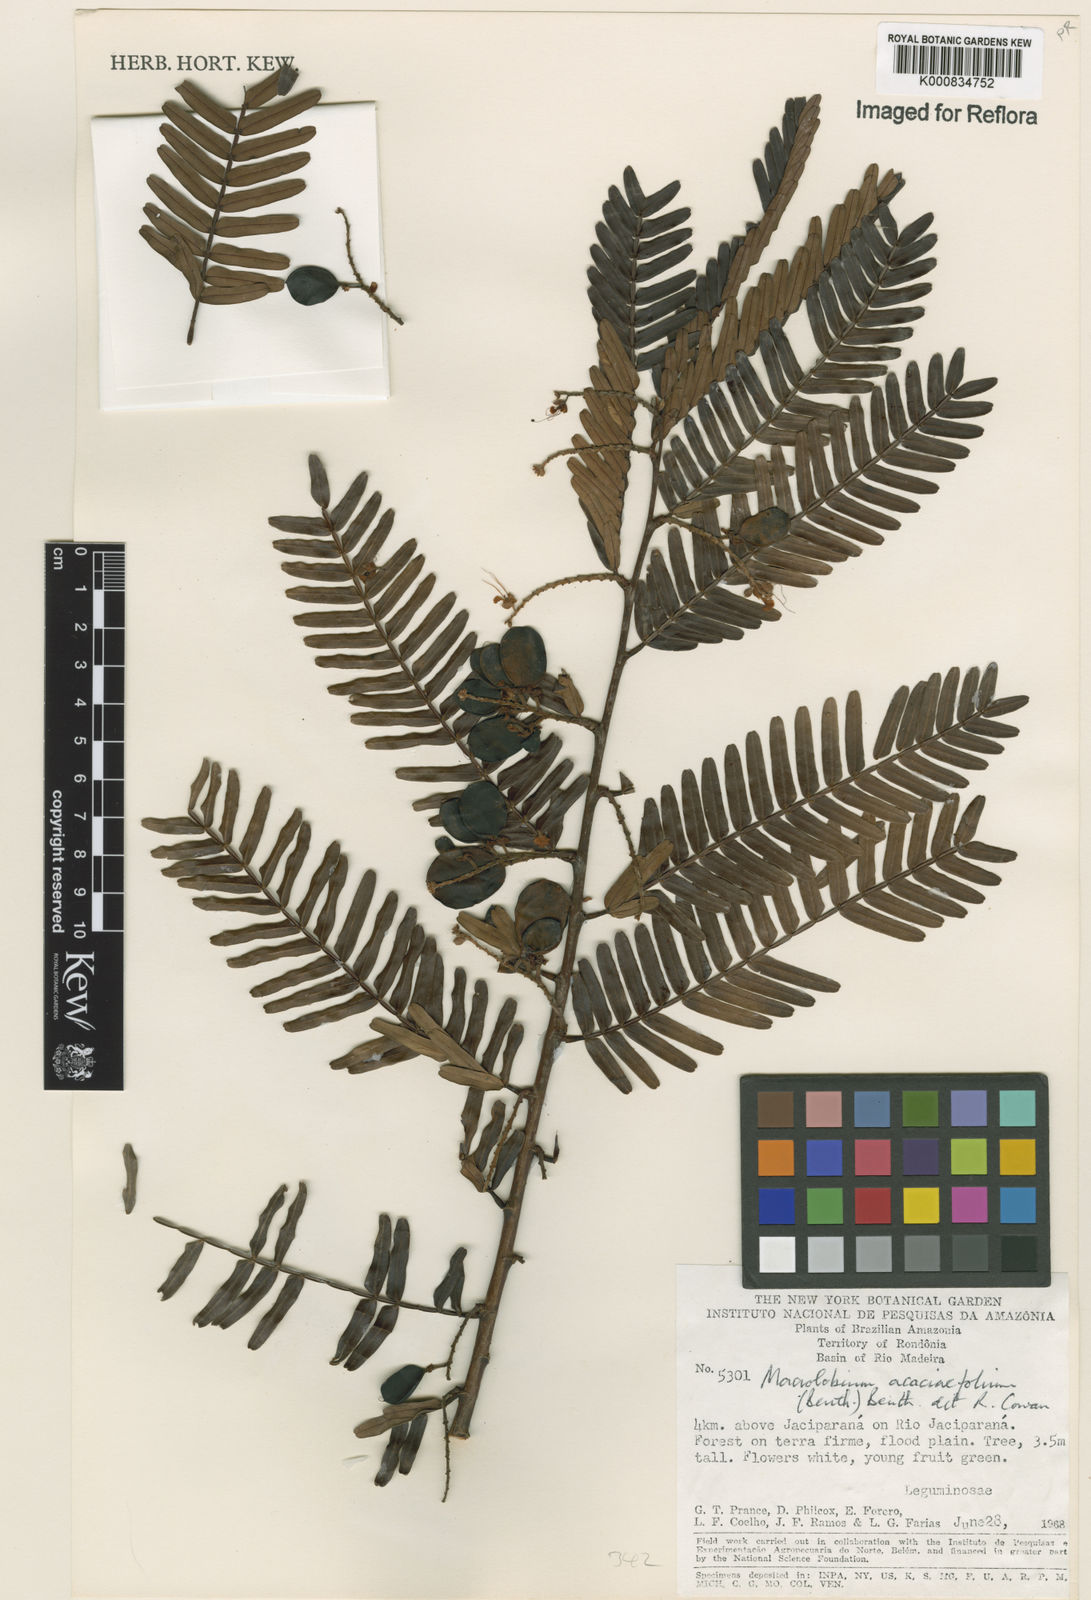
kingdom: Plantae
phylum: Tracheophyta
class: Magnoliopsida
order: Fabales
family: Fabaceae
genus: Macrolobium
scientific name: Macrolobium acaciifolium
